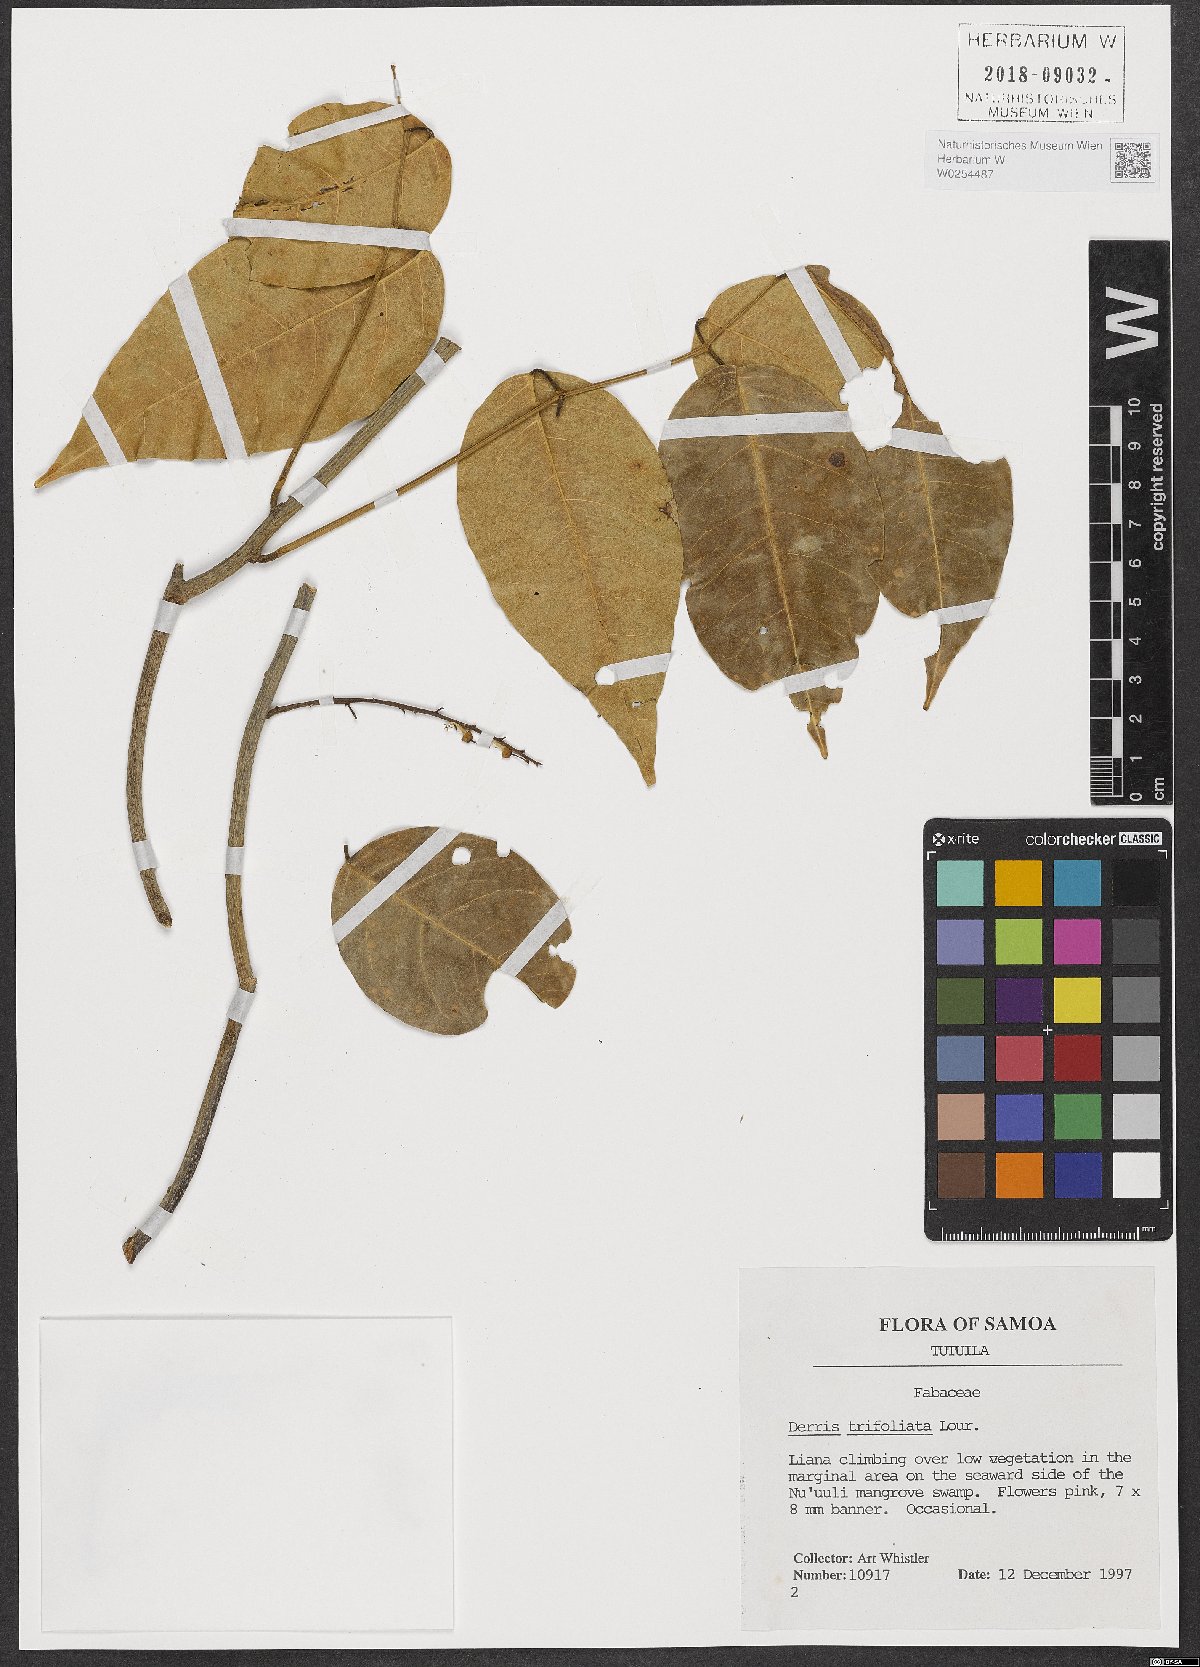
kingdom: Plantae
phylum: Tracheophyta
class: Magnoliopsida
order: Fabales
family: Fabaceae
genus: Derris
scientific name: Derris trifoliata
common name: Three-leaf derris
